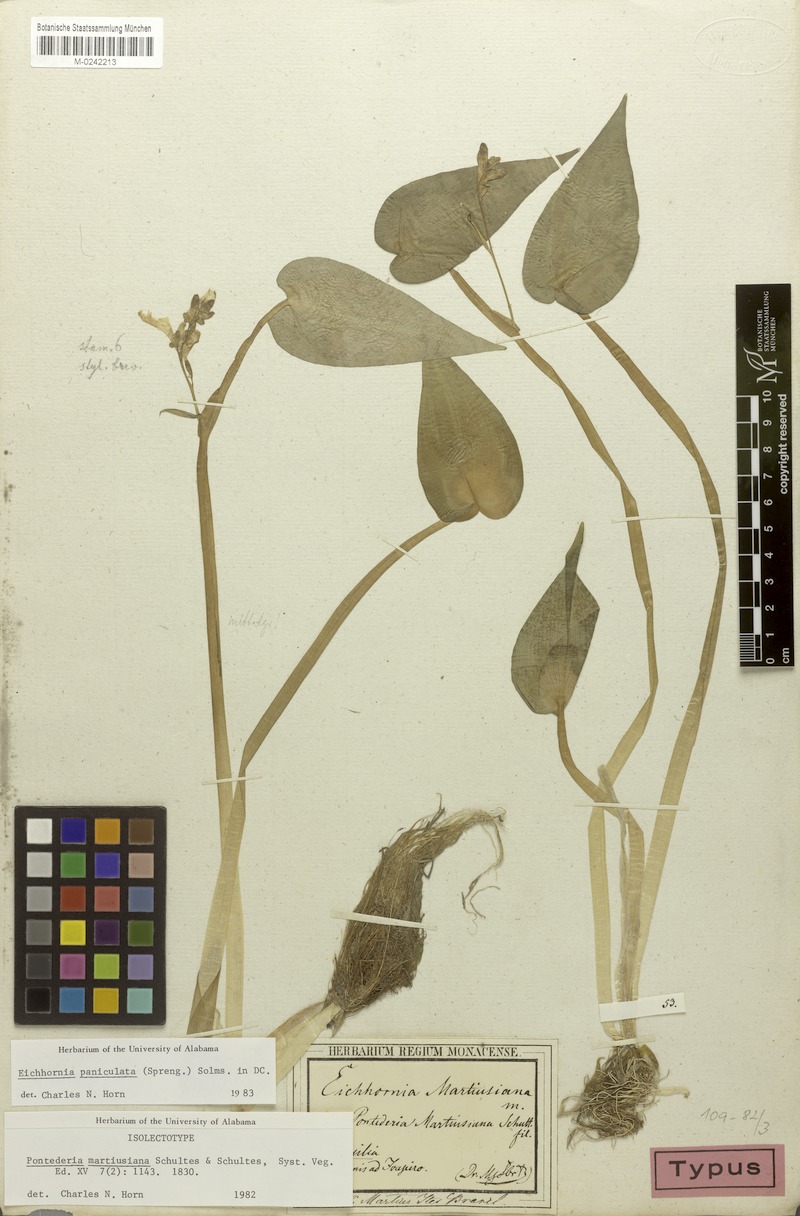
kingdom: Plantae
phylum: Tracheophyta
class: Liliopsida
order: Commelinales
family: Pontederiaceae
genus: Pontederia
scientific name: Pontederia paniculata
